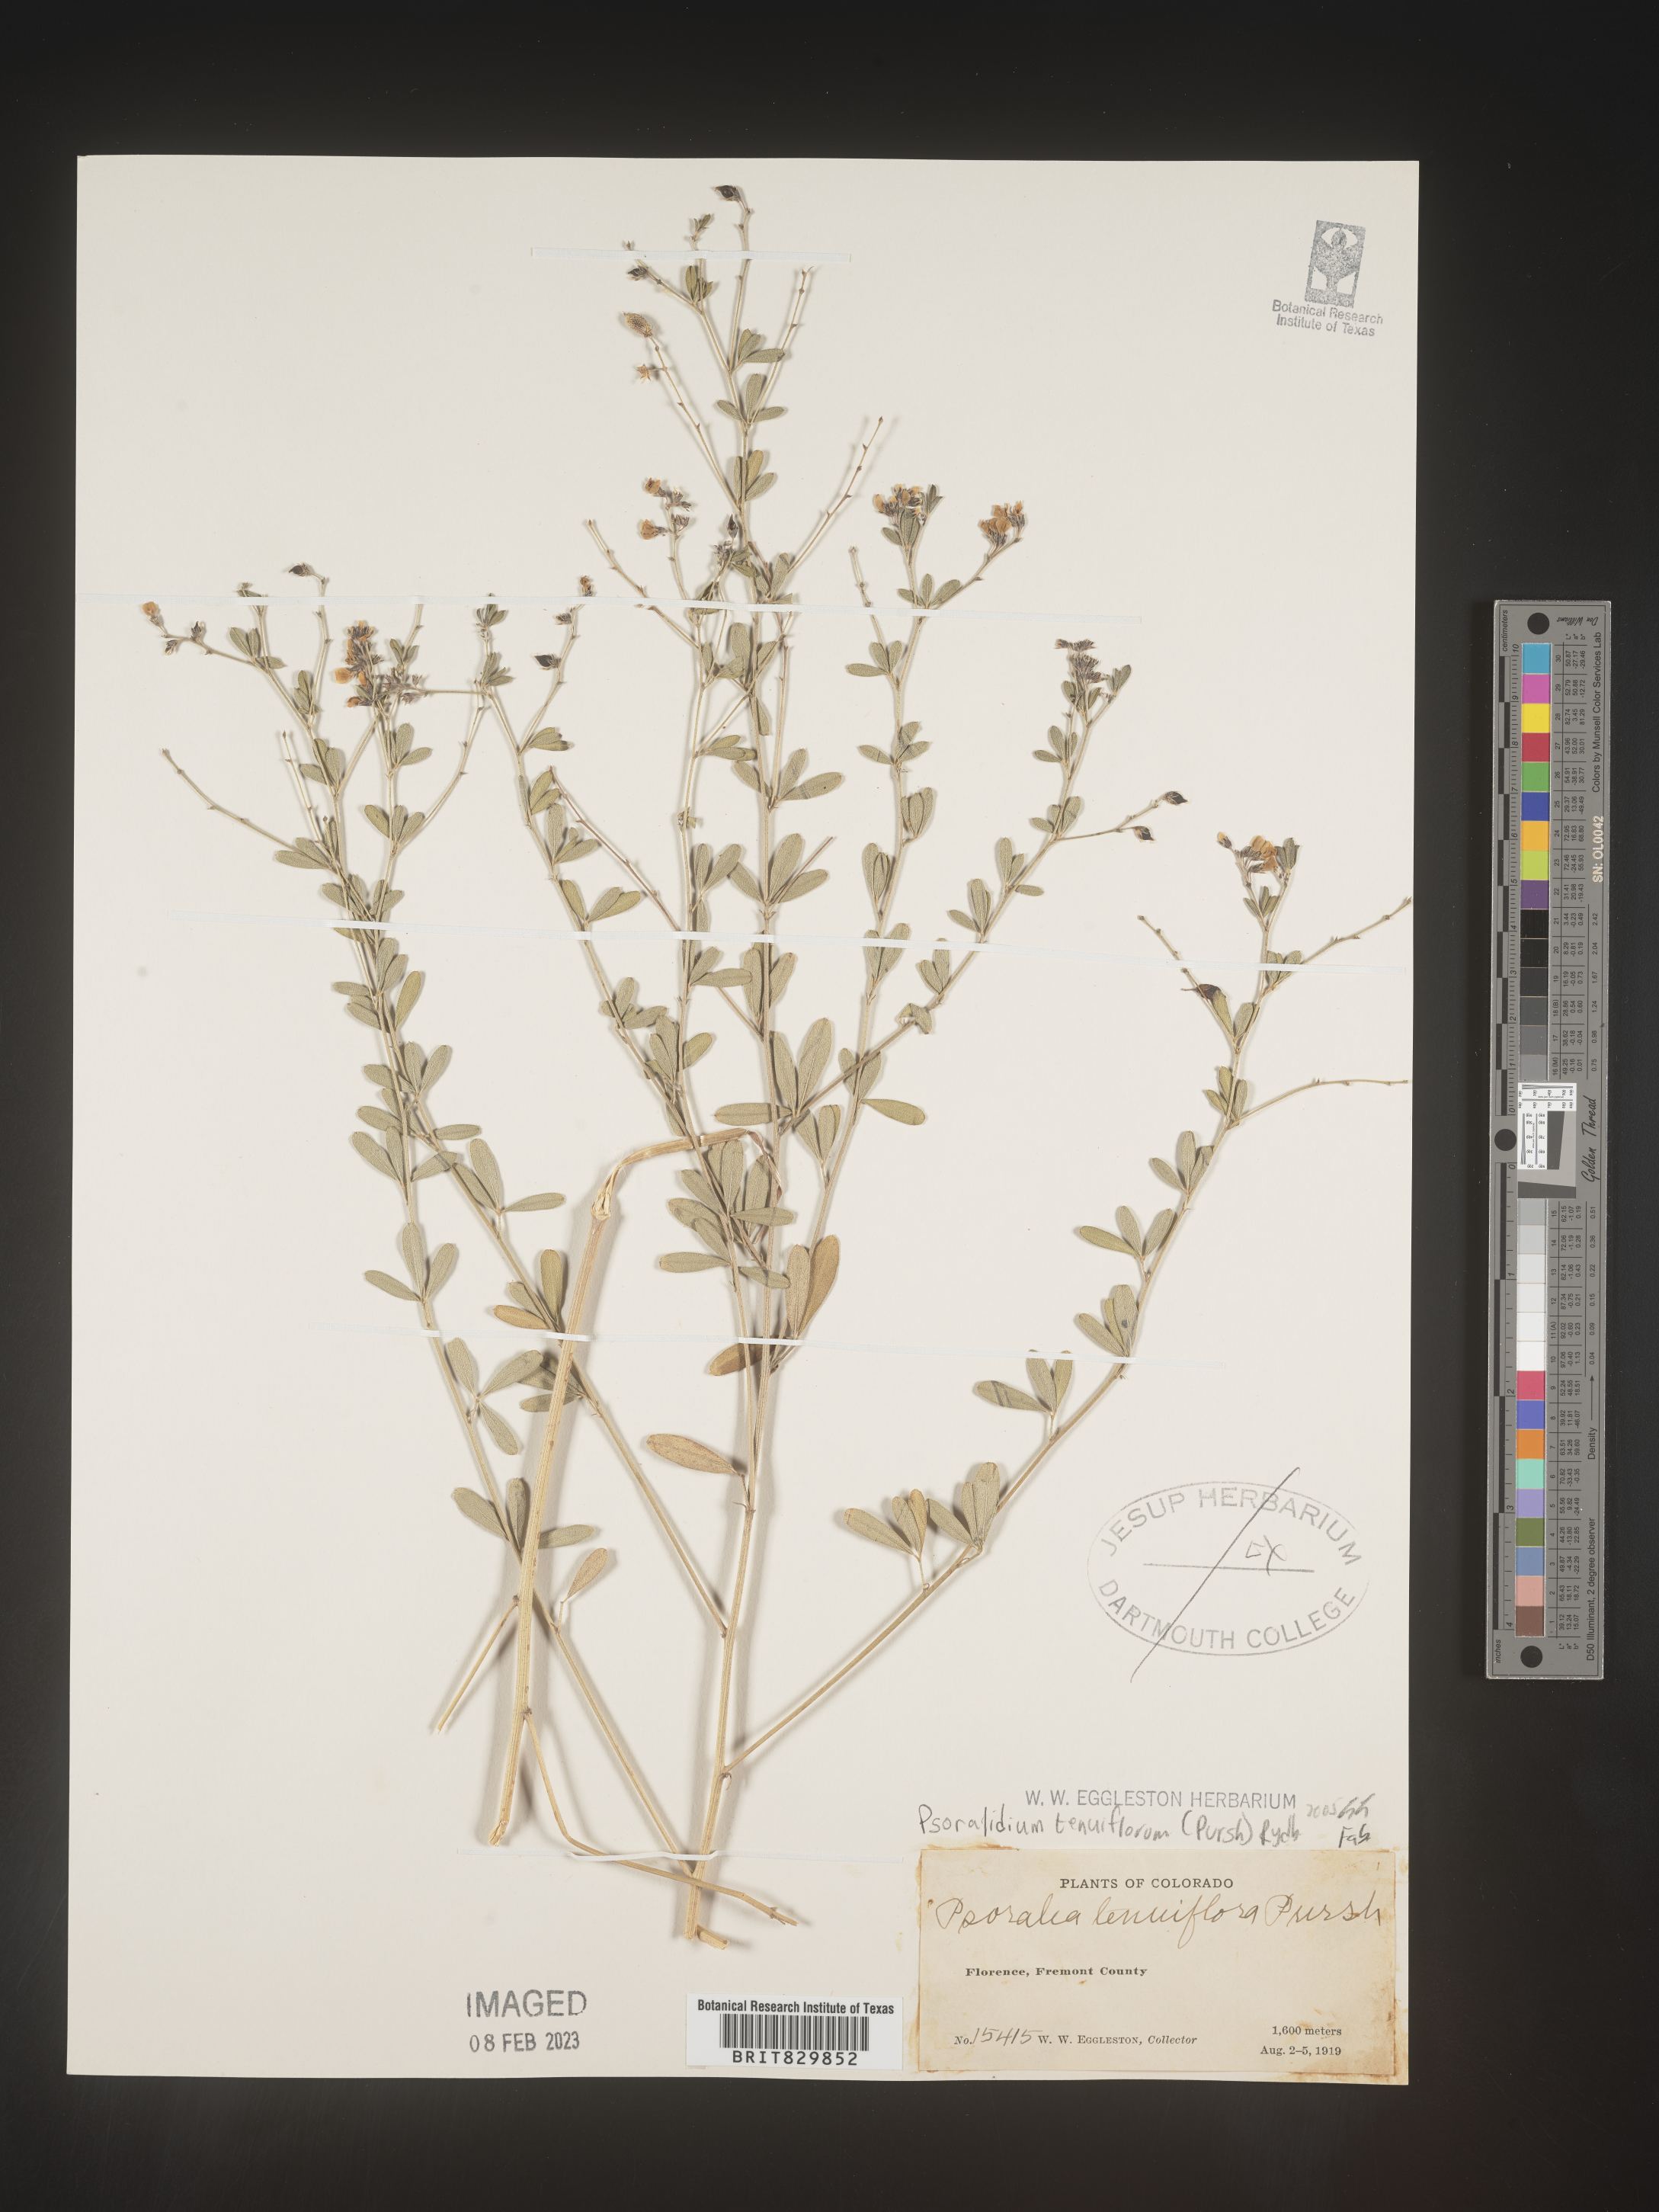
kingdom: Plantae
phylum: Tracheophyta
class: Magnoliopsida
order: Fabales
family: Fabaceae
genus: Pediomelum
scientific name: Pediomelum tenuiflorum
